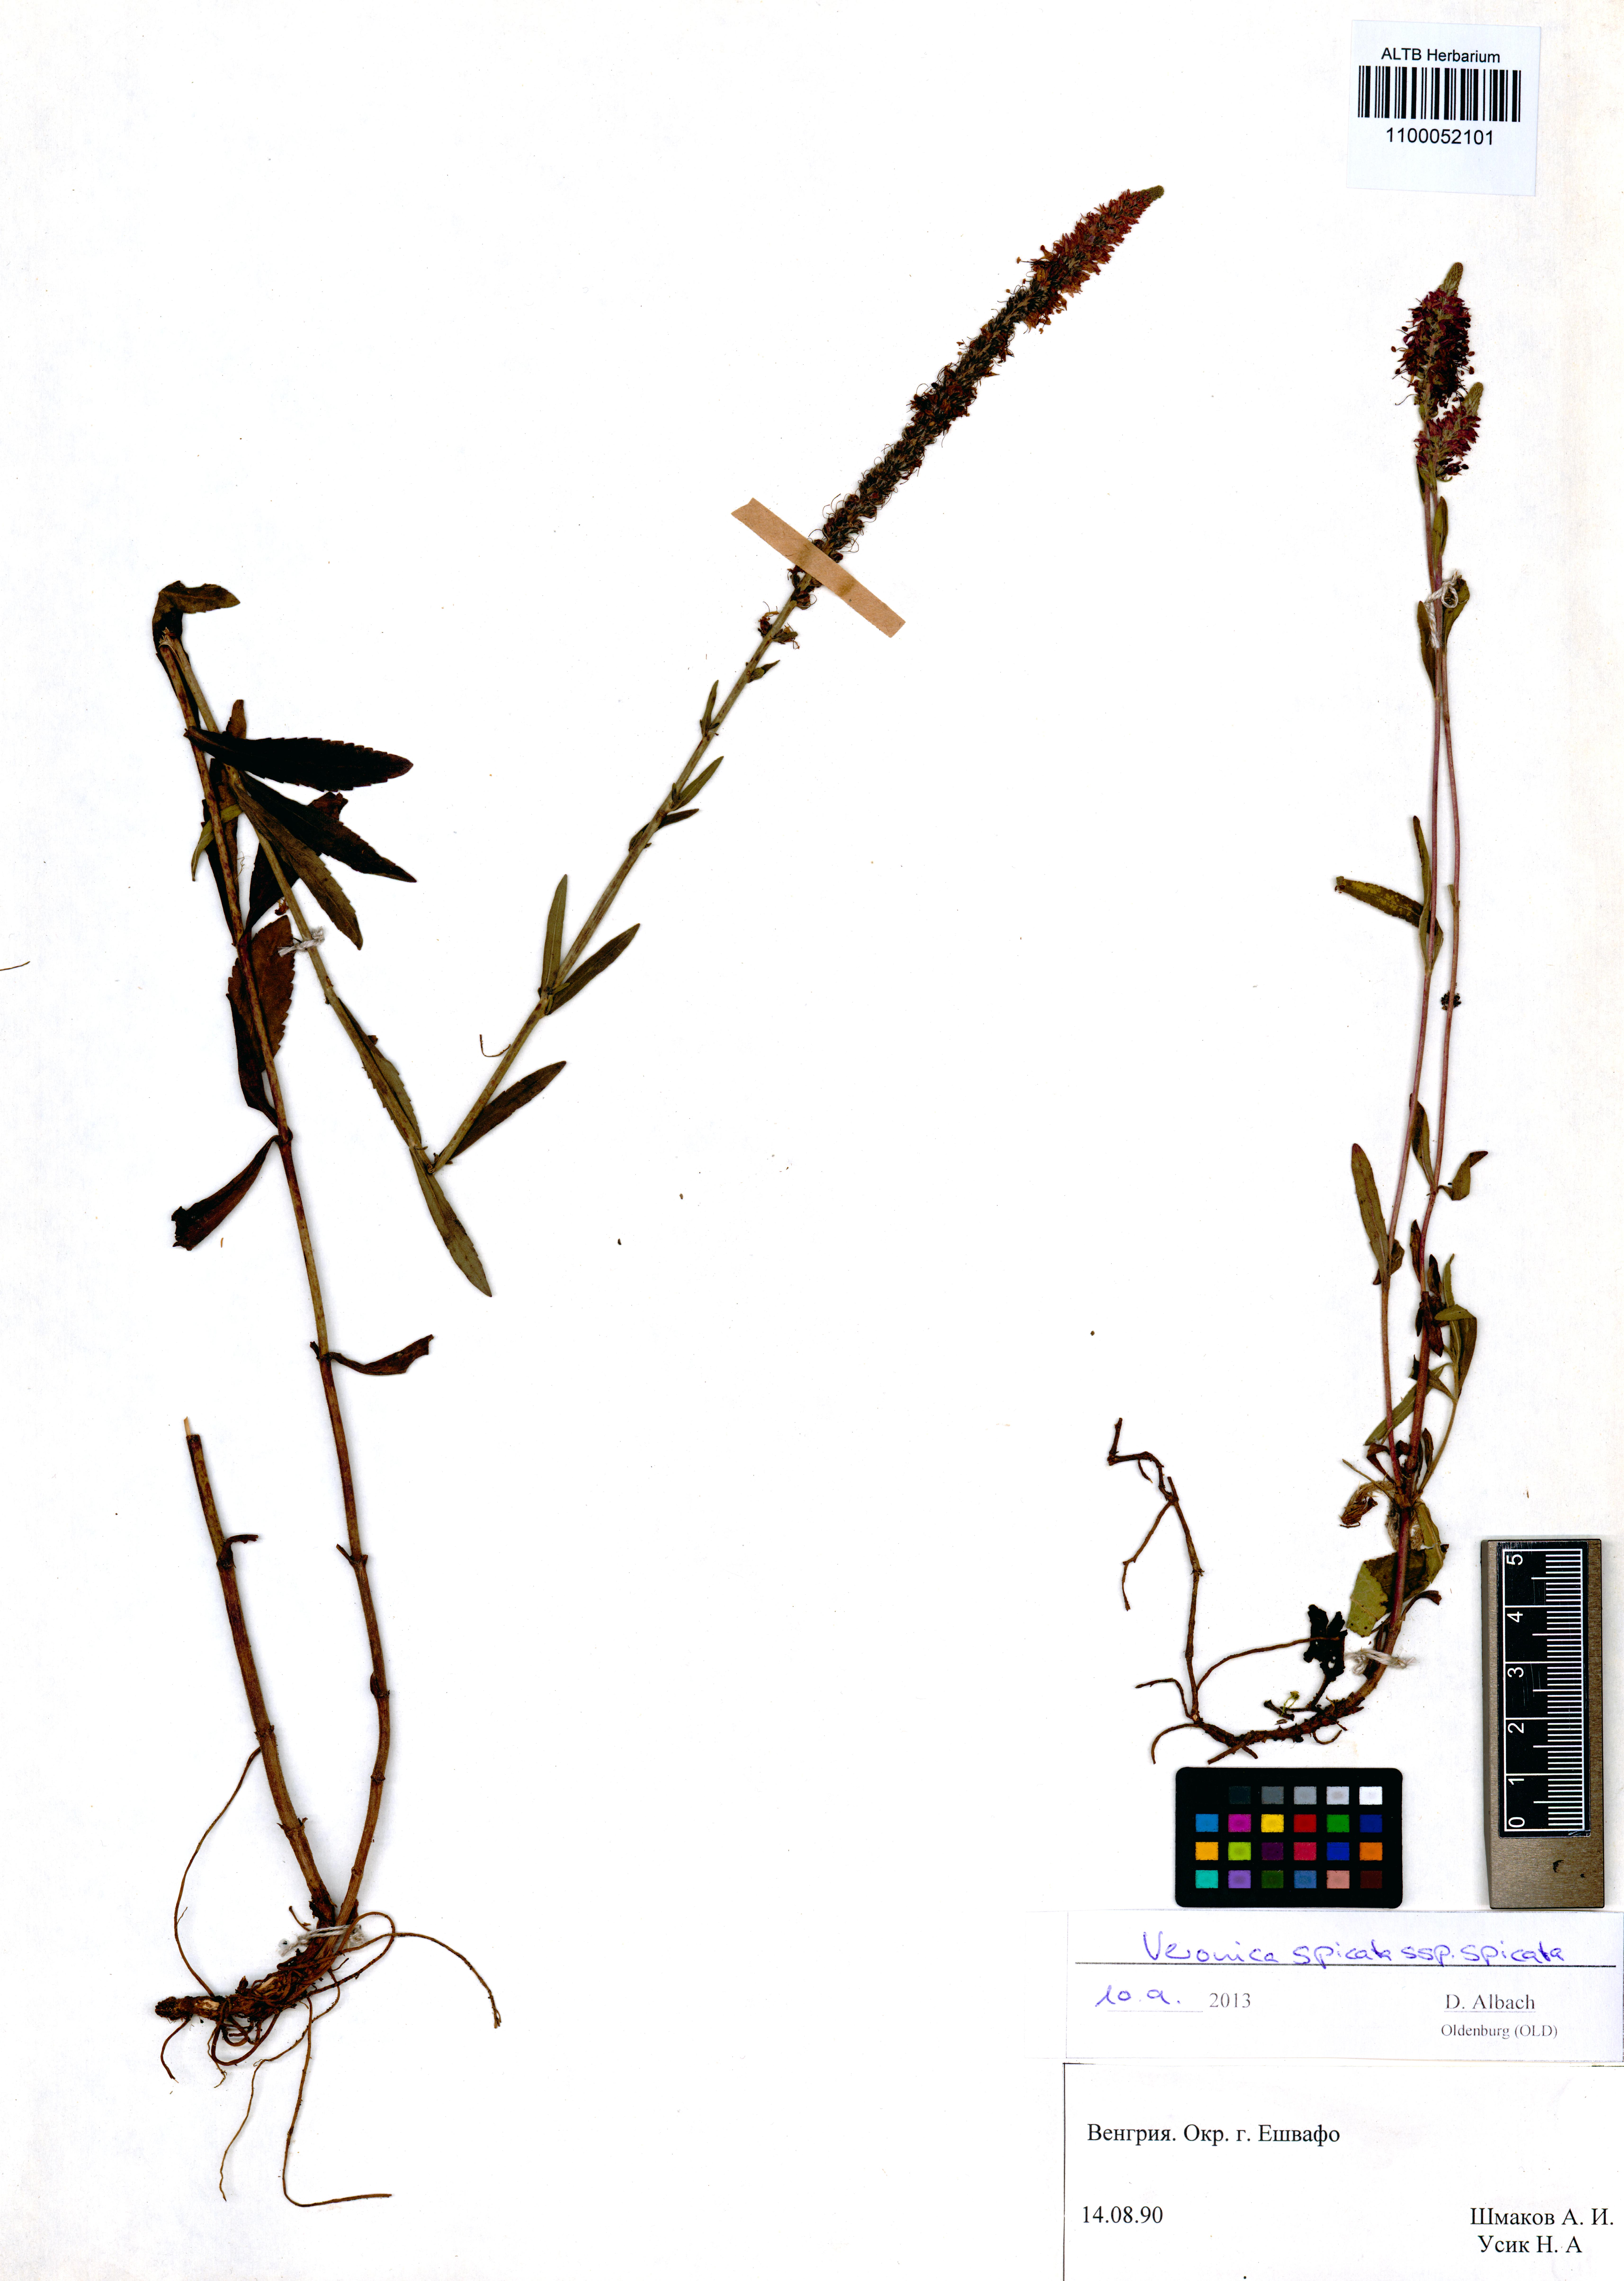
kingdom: Plantae
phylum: Tracheophyta
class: Magnoliopsida
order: Lamiales
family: Plantaginaceae
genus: Veronica
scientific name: Veronica spicata
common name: Spiked speedwell
